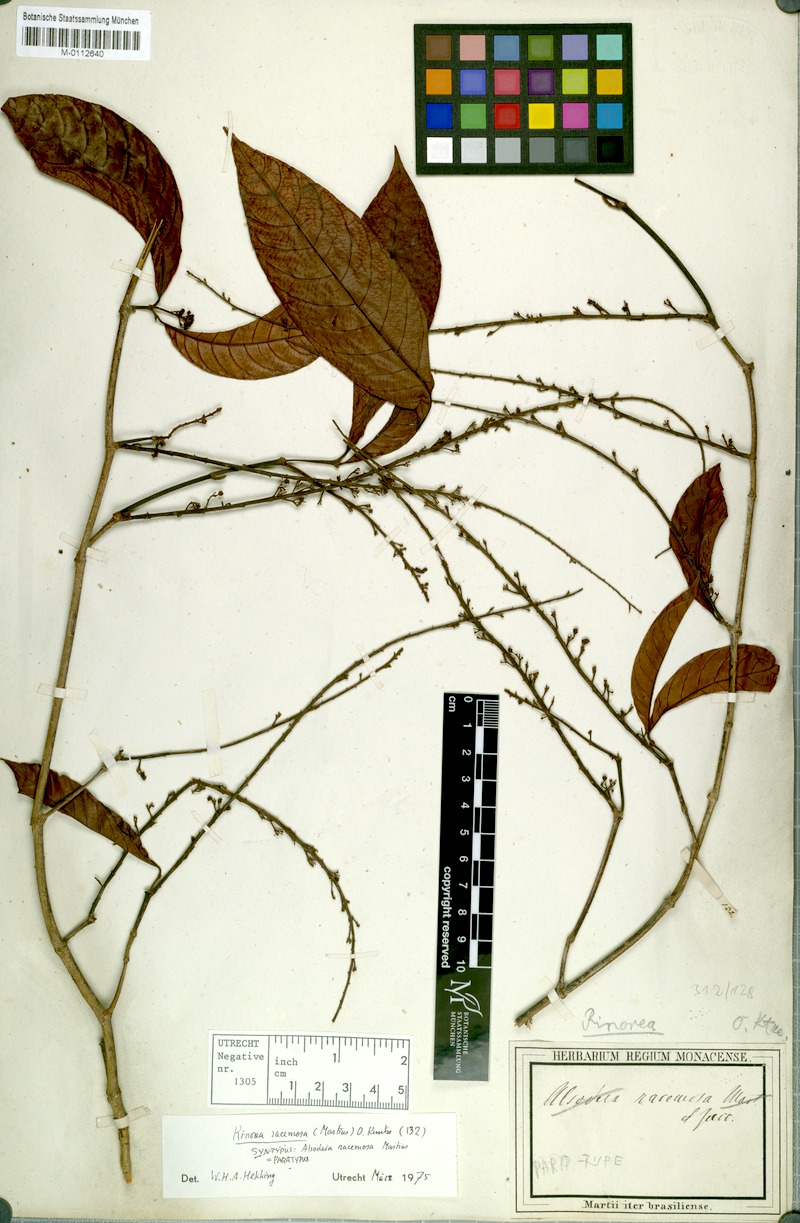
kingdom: Plantae
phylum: Tracheophyta
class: Magnoliopsida
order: Malpighiales
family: Violaceae
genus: Rinorea
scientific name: Rinorea racemosa
